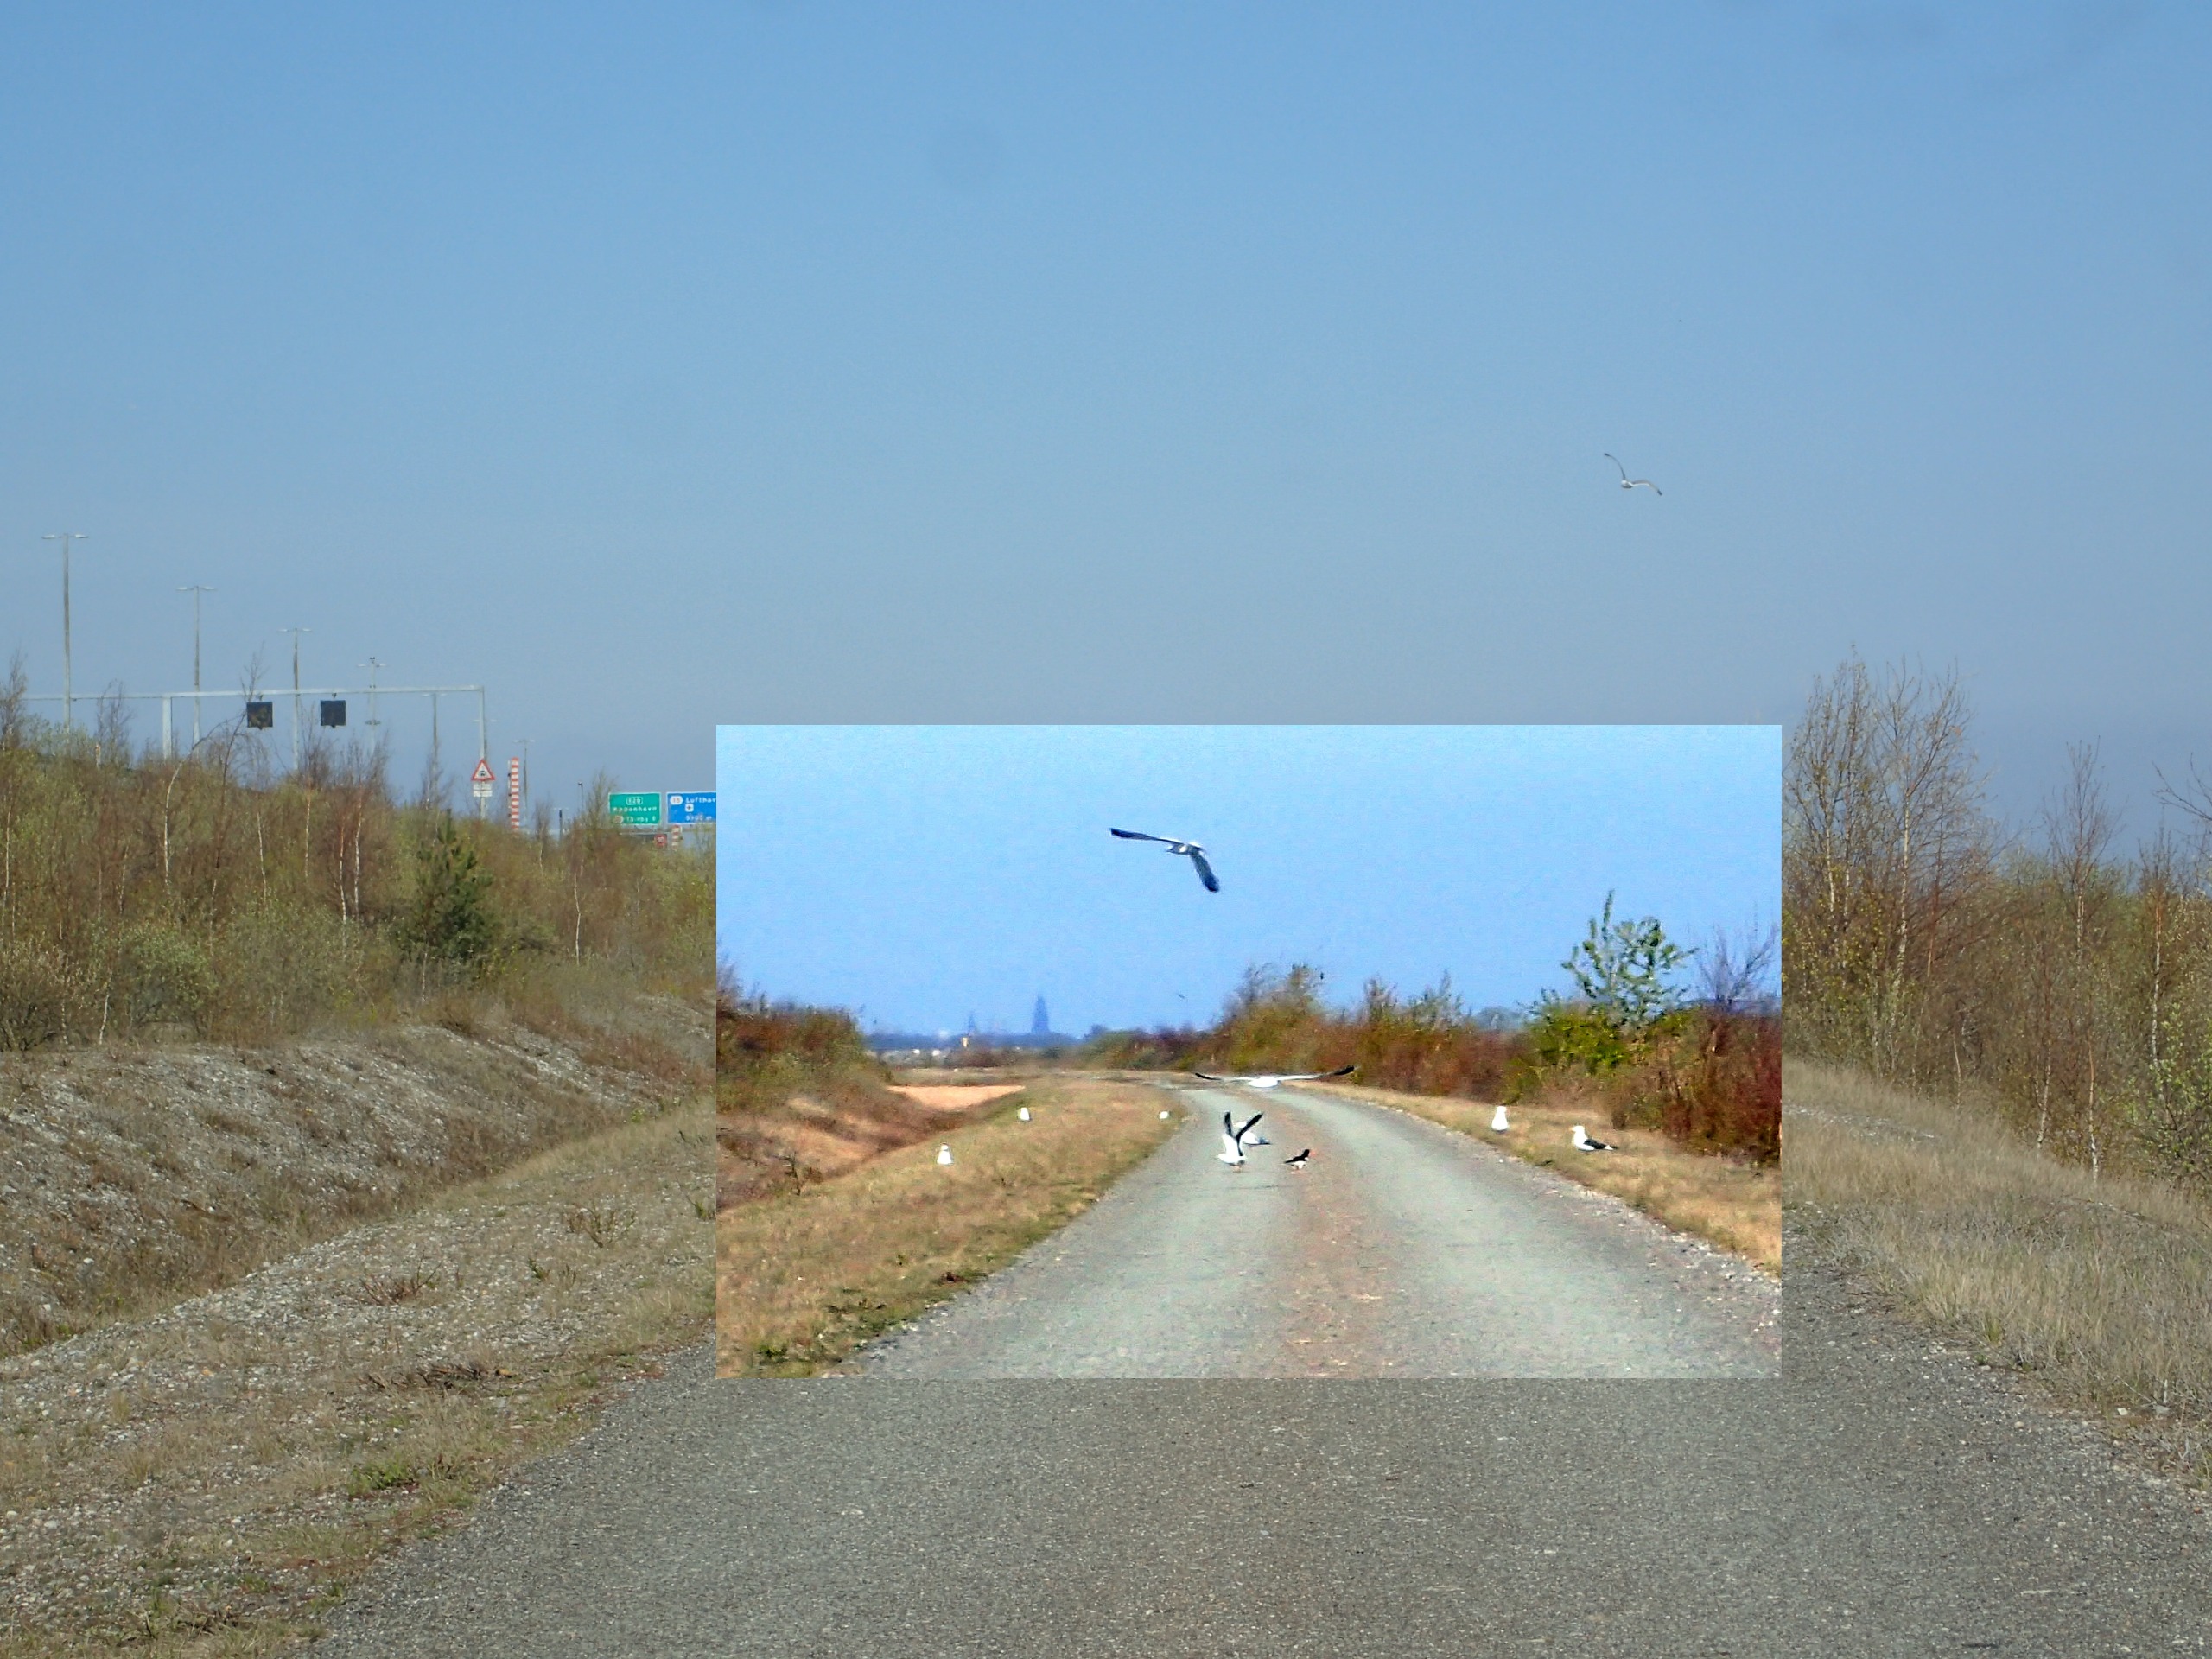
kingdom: Animalia
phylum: Chordata
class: Aves
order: Charadriiformes
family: Haematopodidae
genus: Haematopus
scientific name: Haematopus ostralegus
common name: Strandskade
